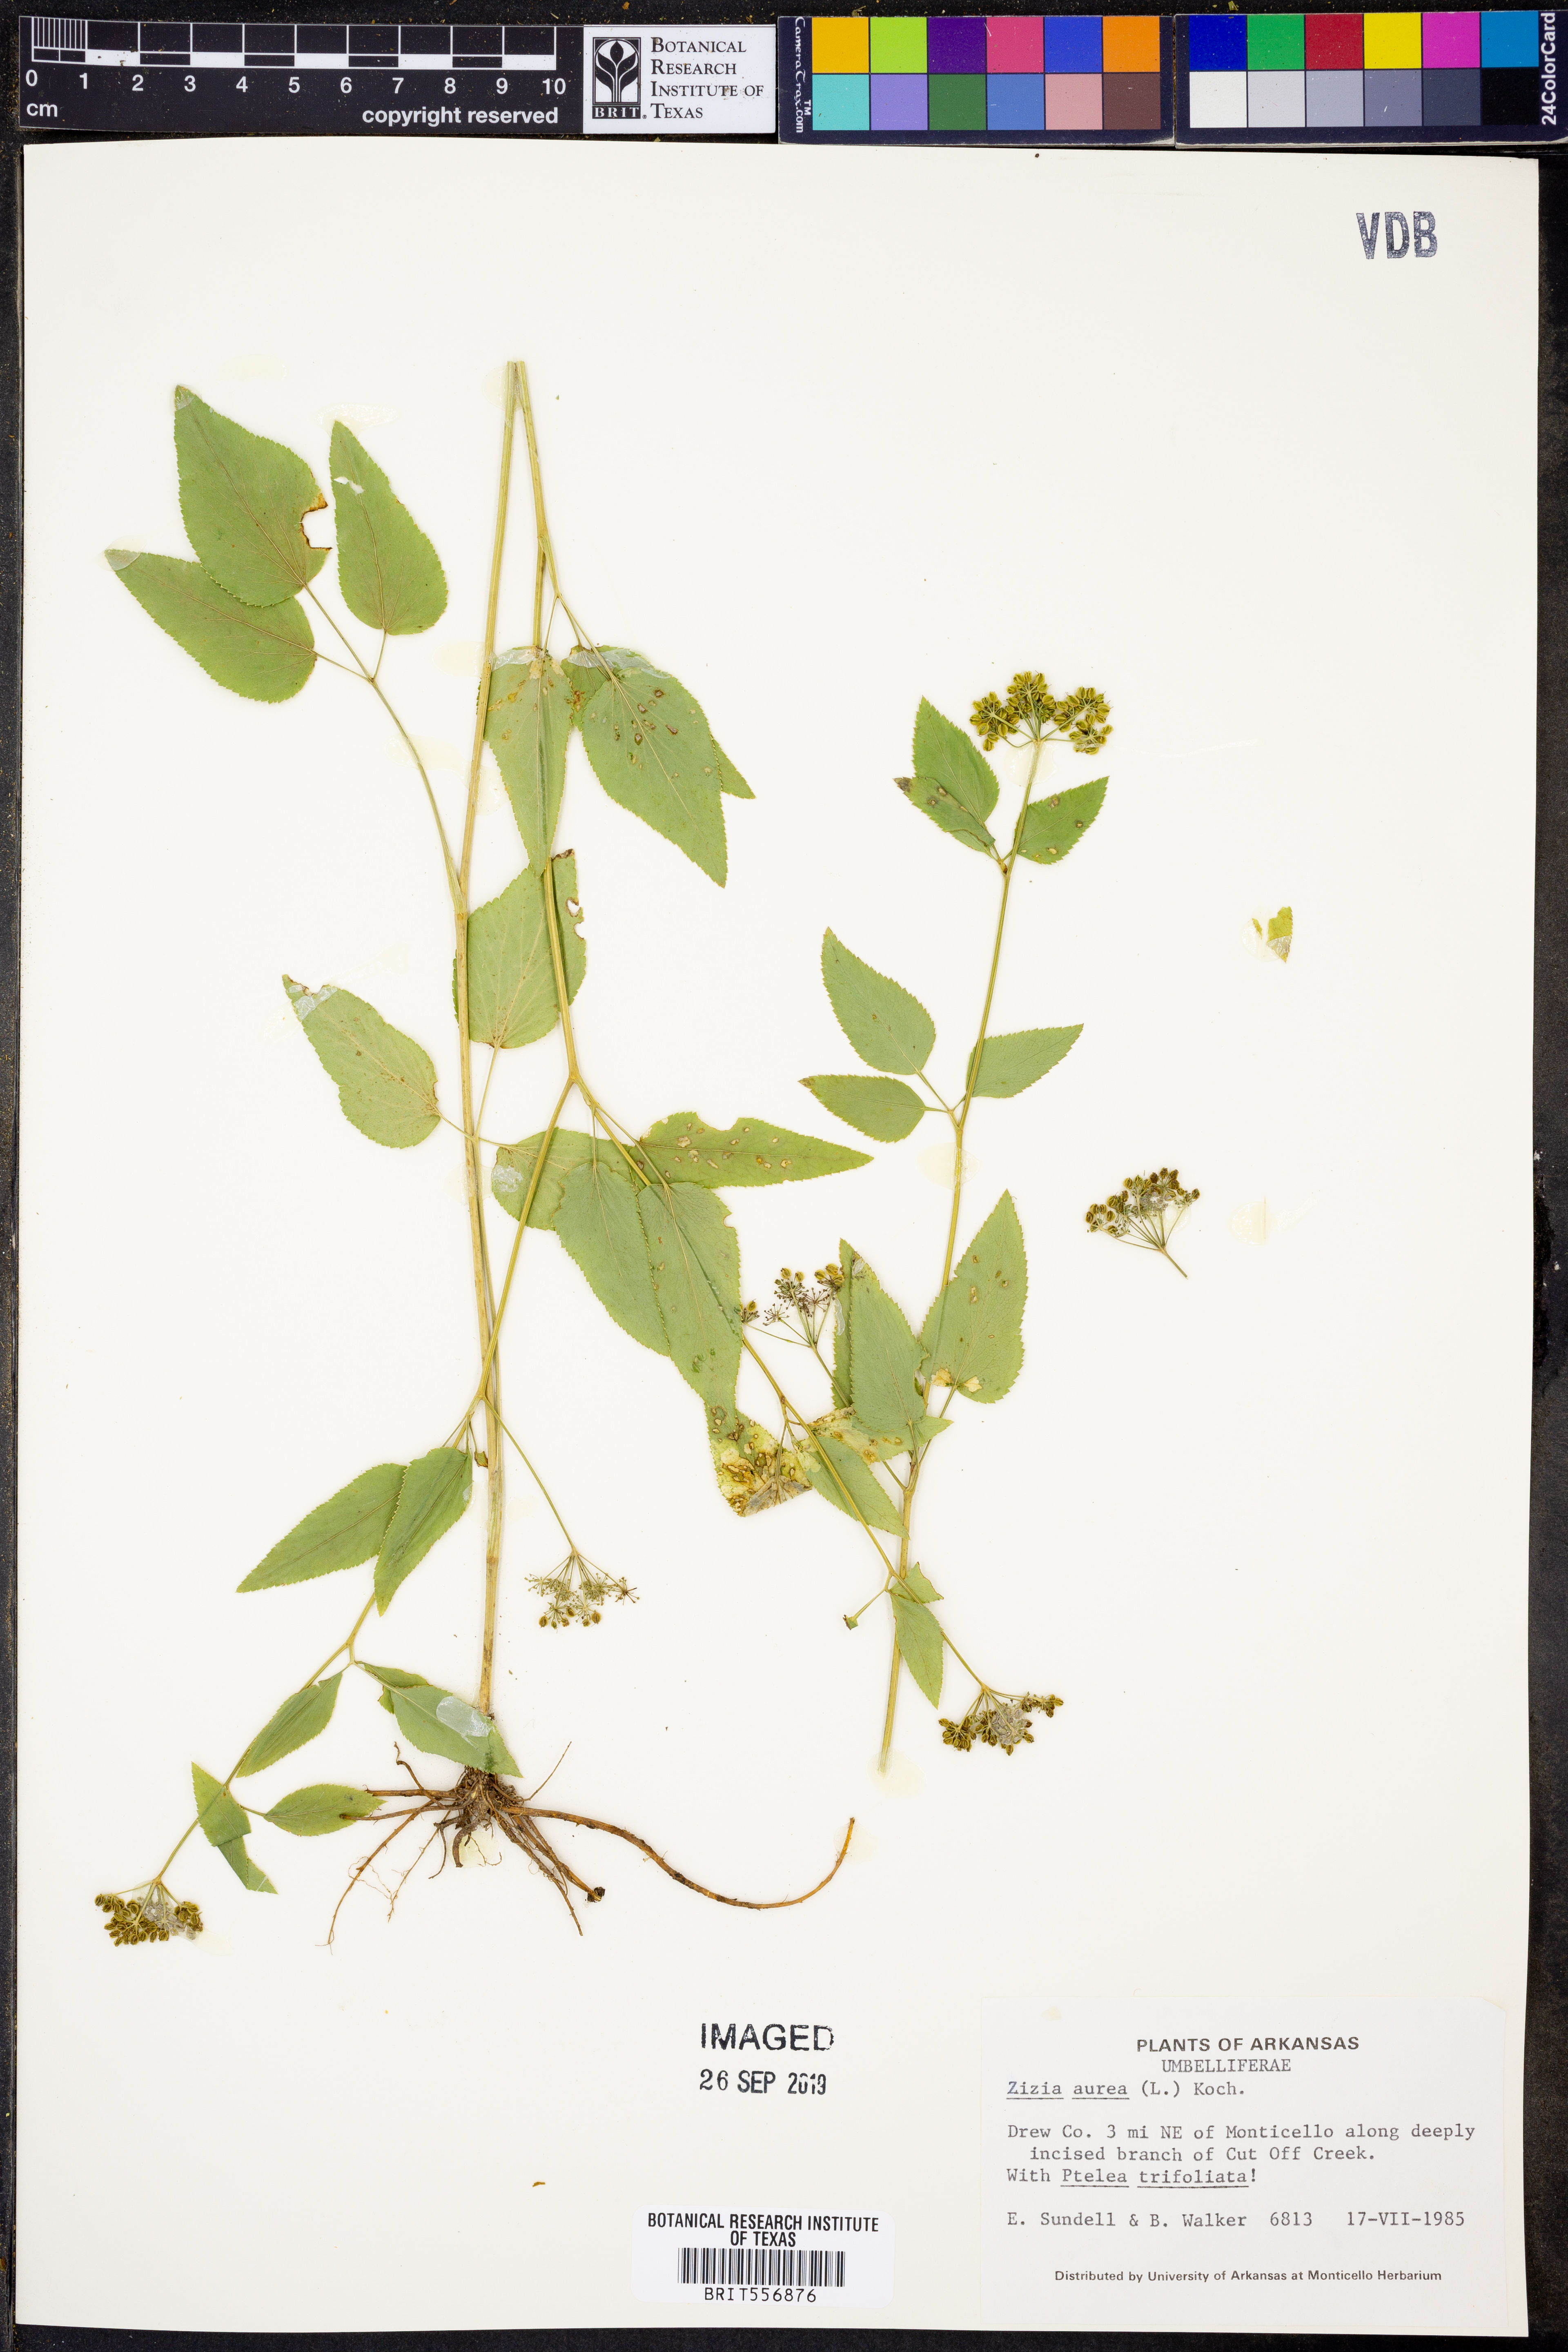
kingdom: Plantae
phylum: Tracheophyta
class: Magnoliopsida
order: Apiales
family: Apiaceae
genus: Zizia
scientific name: Zizia aurea
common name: Golden alexanders
